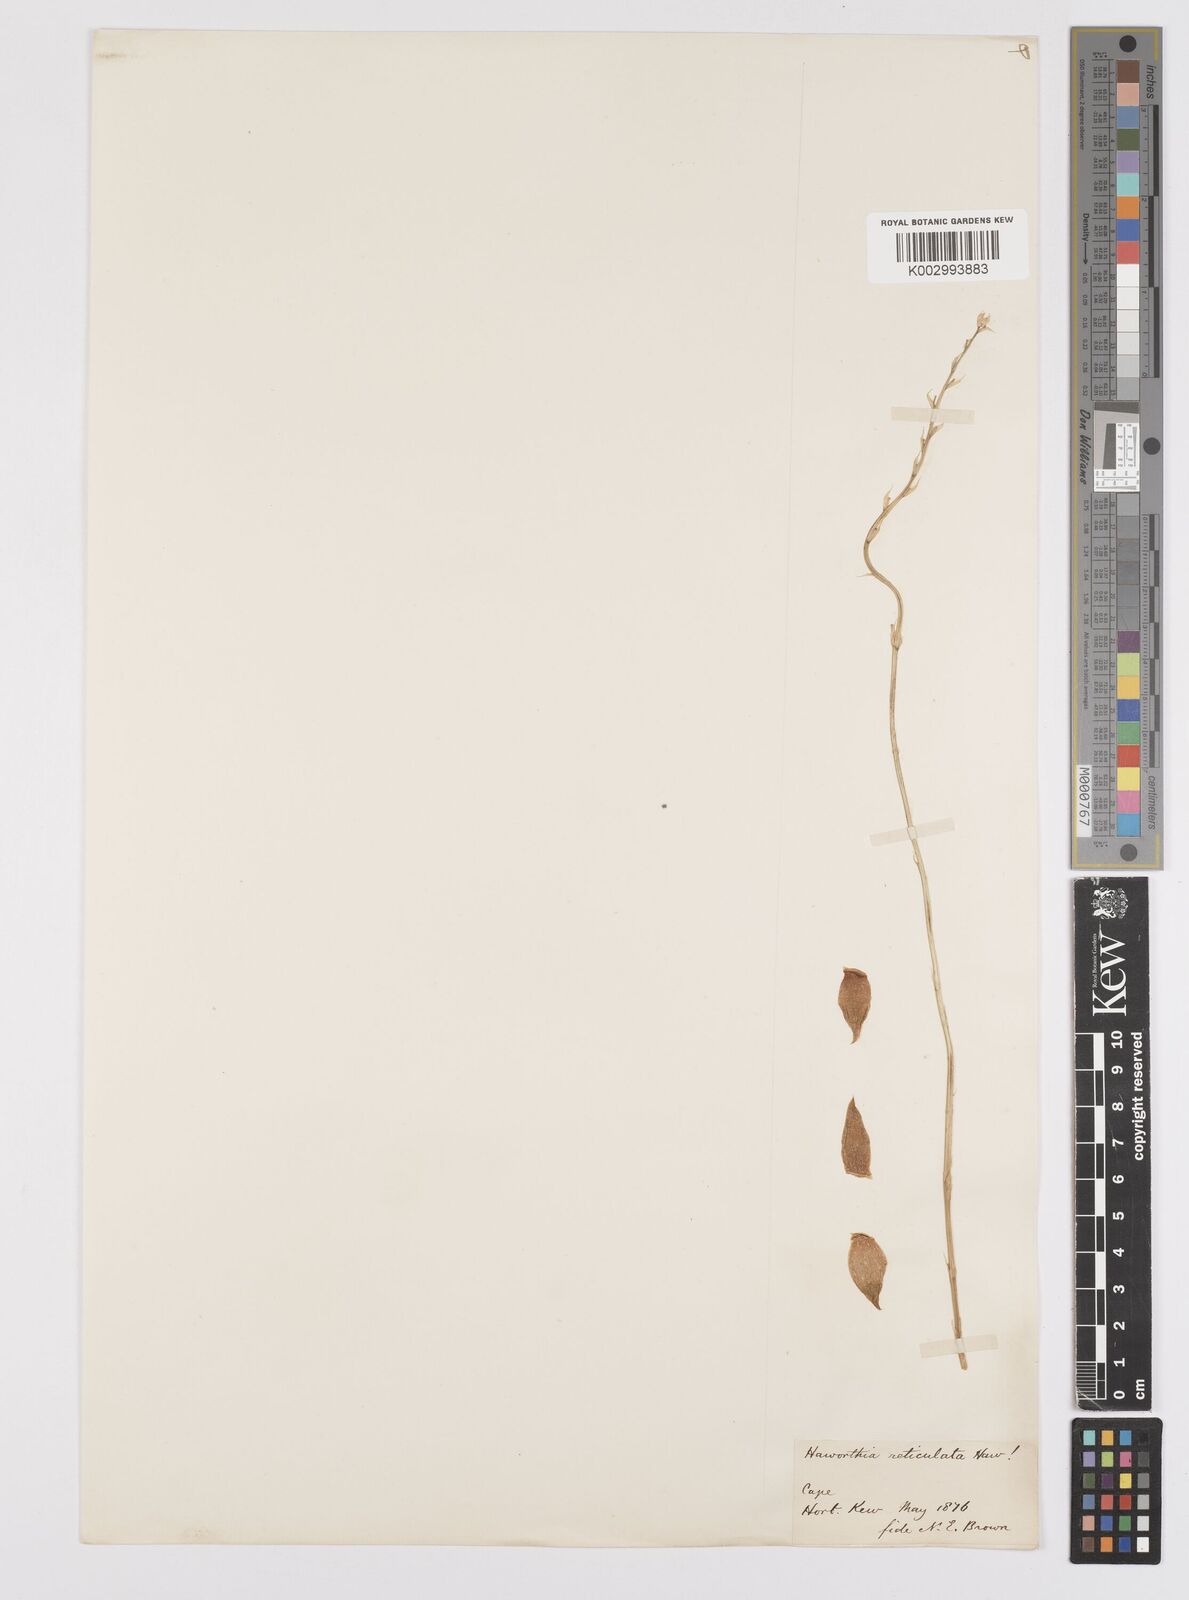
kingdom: Plantae
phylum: Tracheophyta
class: Liliopsida
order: Asparagales
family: Asphodelaceae
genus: Haworthia
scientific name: Haworthia reticulata
